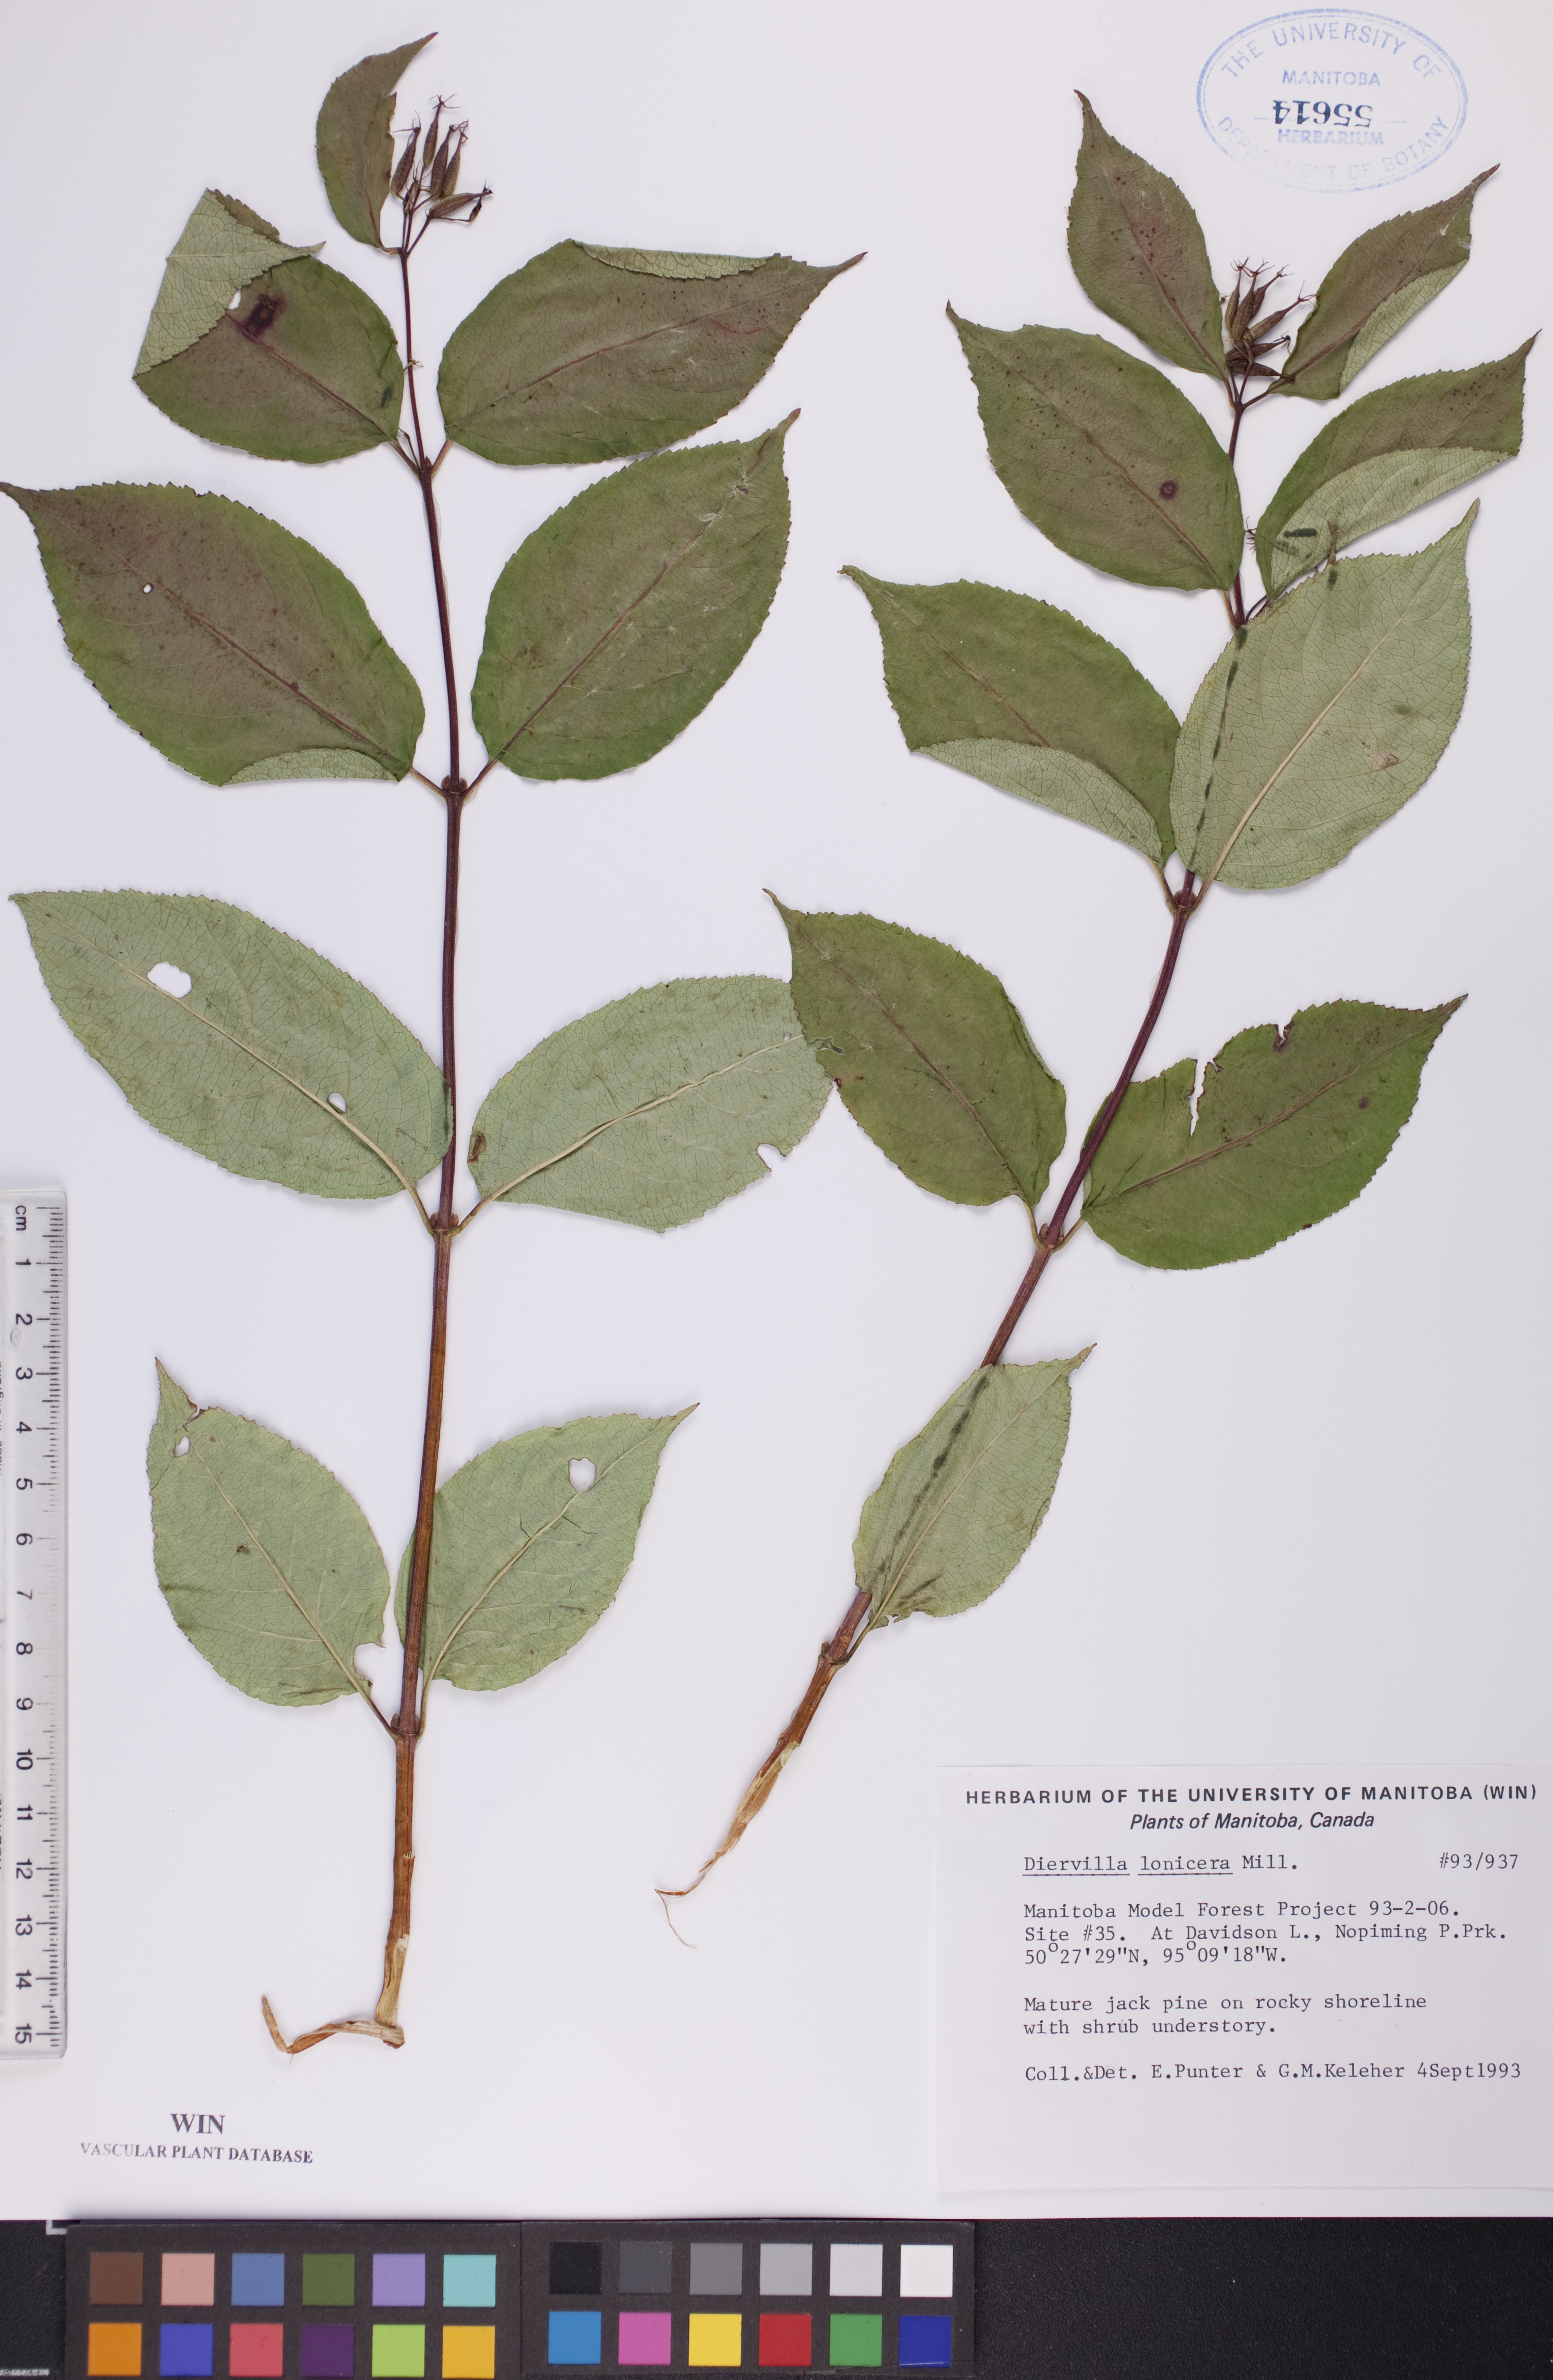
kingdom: Plantae
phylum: Tracheophyta
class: Magnoliopsida
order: Dipsacales
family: Caprifoliaceae
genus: Diervilla
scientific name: Diervilla lonicera
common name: Bush-honeysuckle
